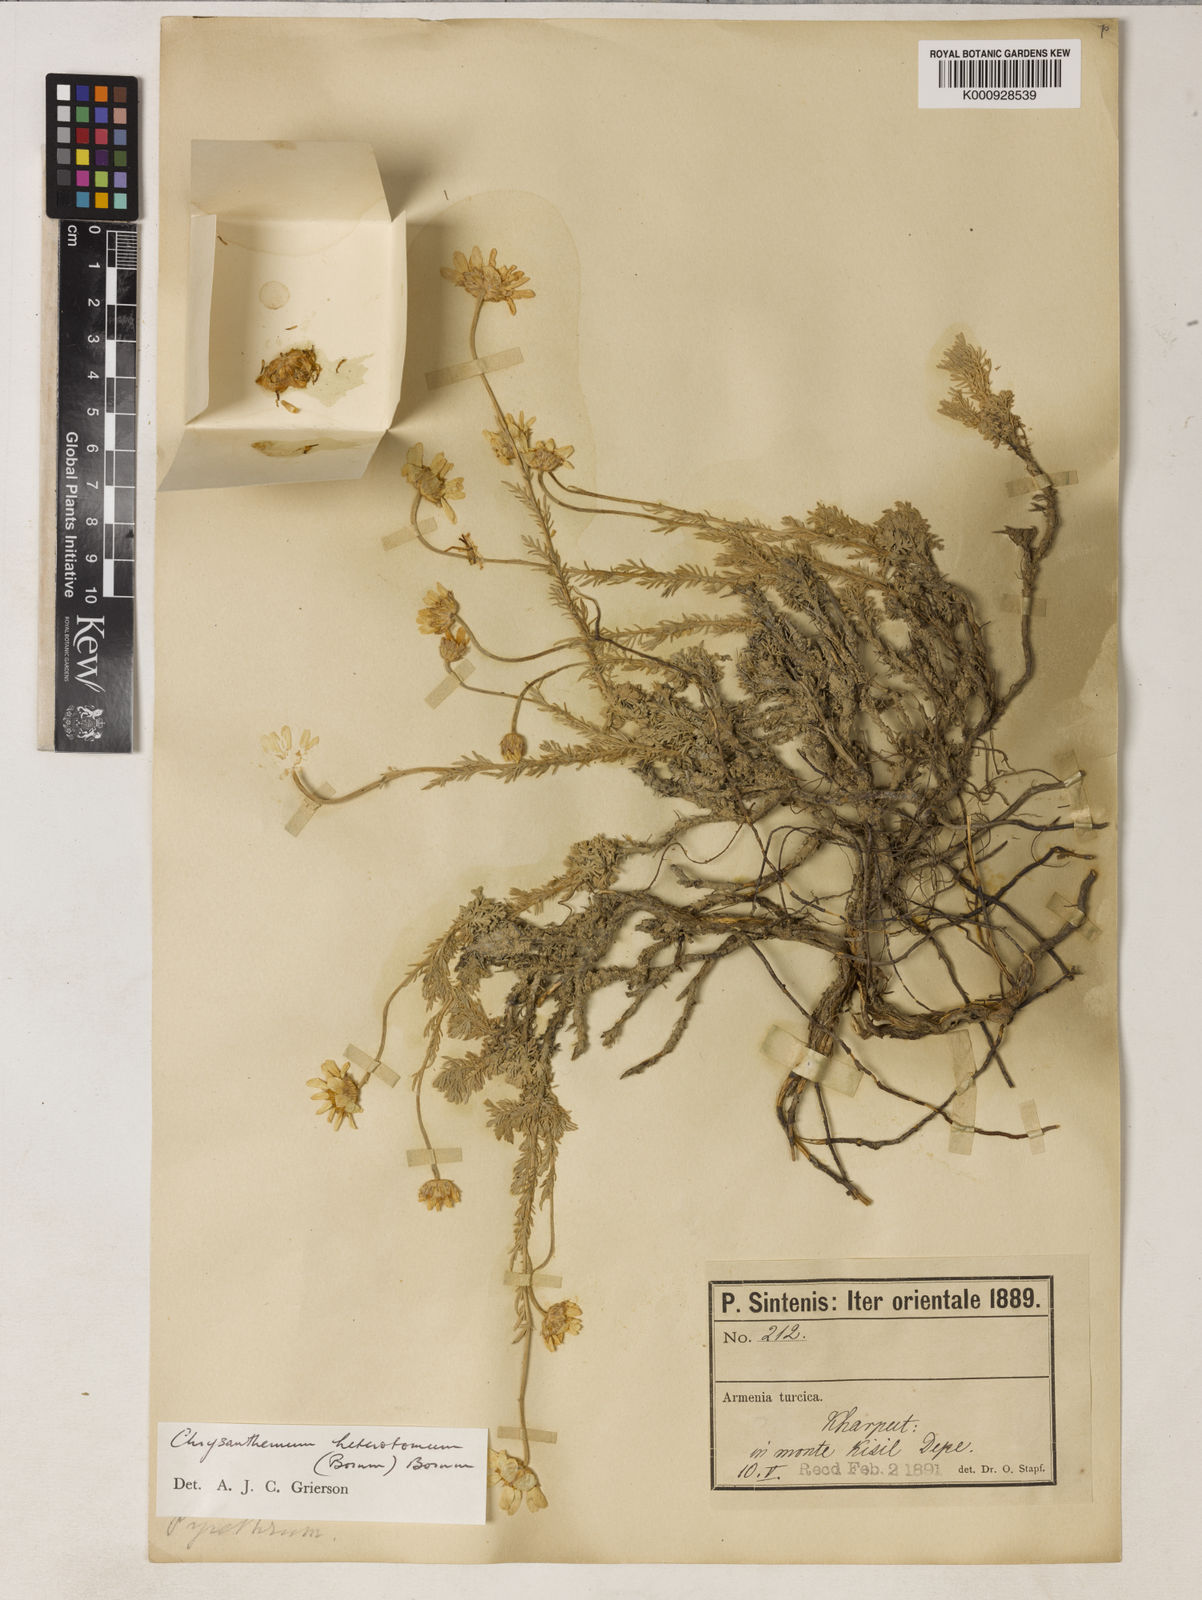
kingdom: Plantae
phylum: Tracheophyta
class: Magnoliopsida
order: Asterales
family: Asteraceae
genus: Tanacetum
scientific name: Tanacetum heterotomum
